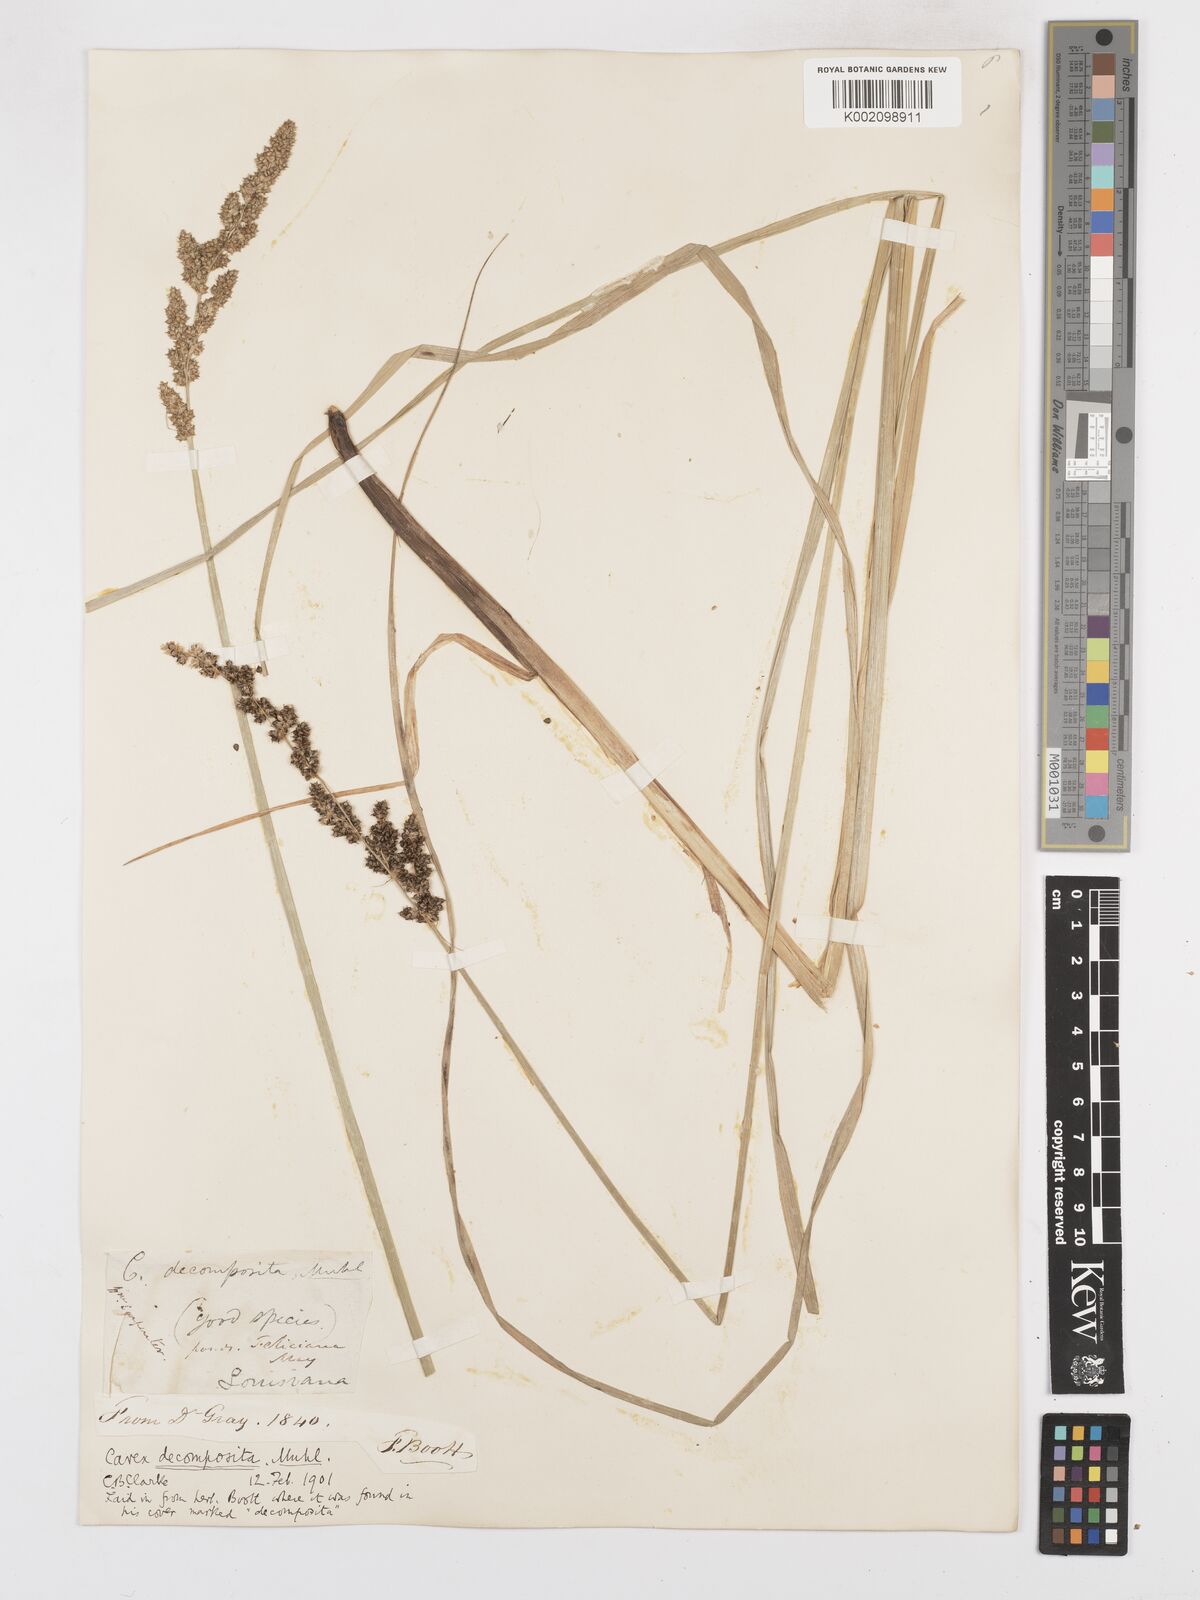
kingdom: Plantae
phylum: Tracheophyta
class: Liliopsida
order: Poales
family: Cyperaceae
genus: Carex
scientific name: Carex decomposita
